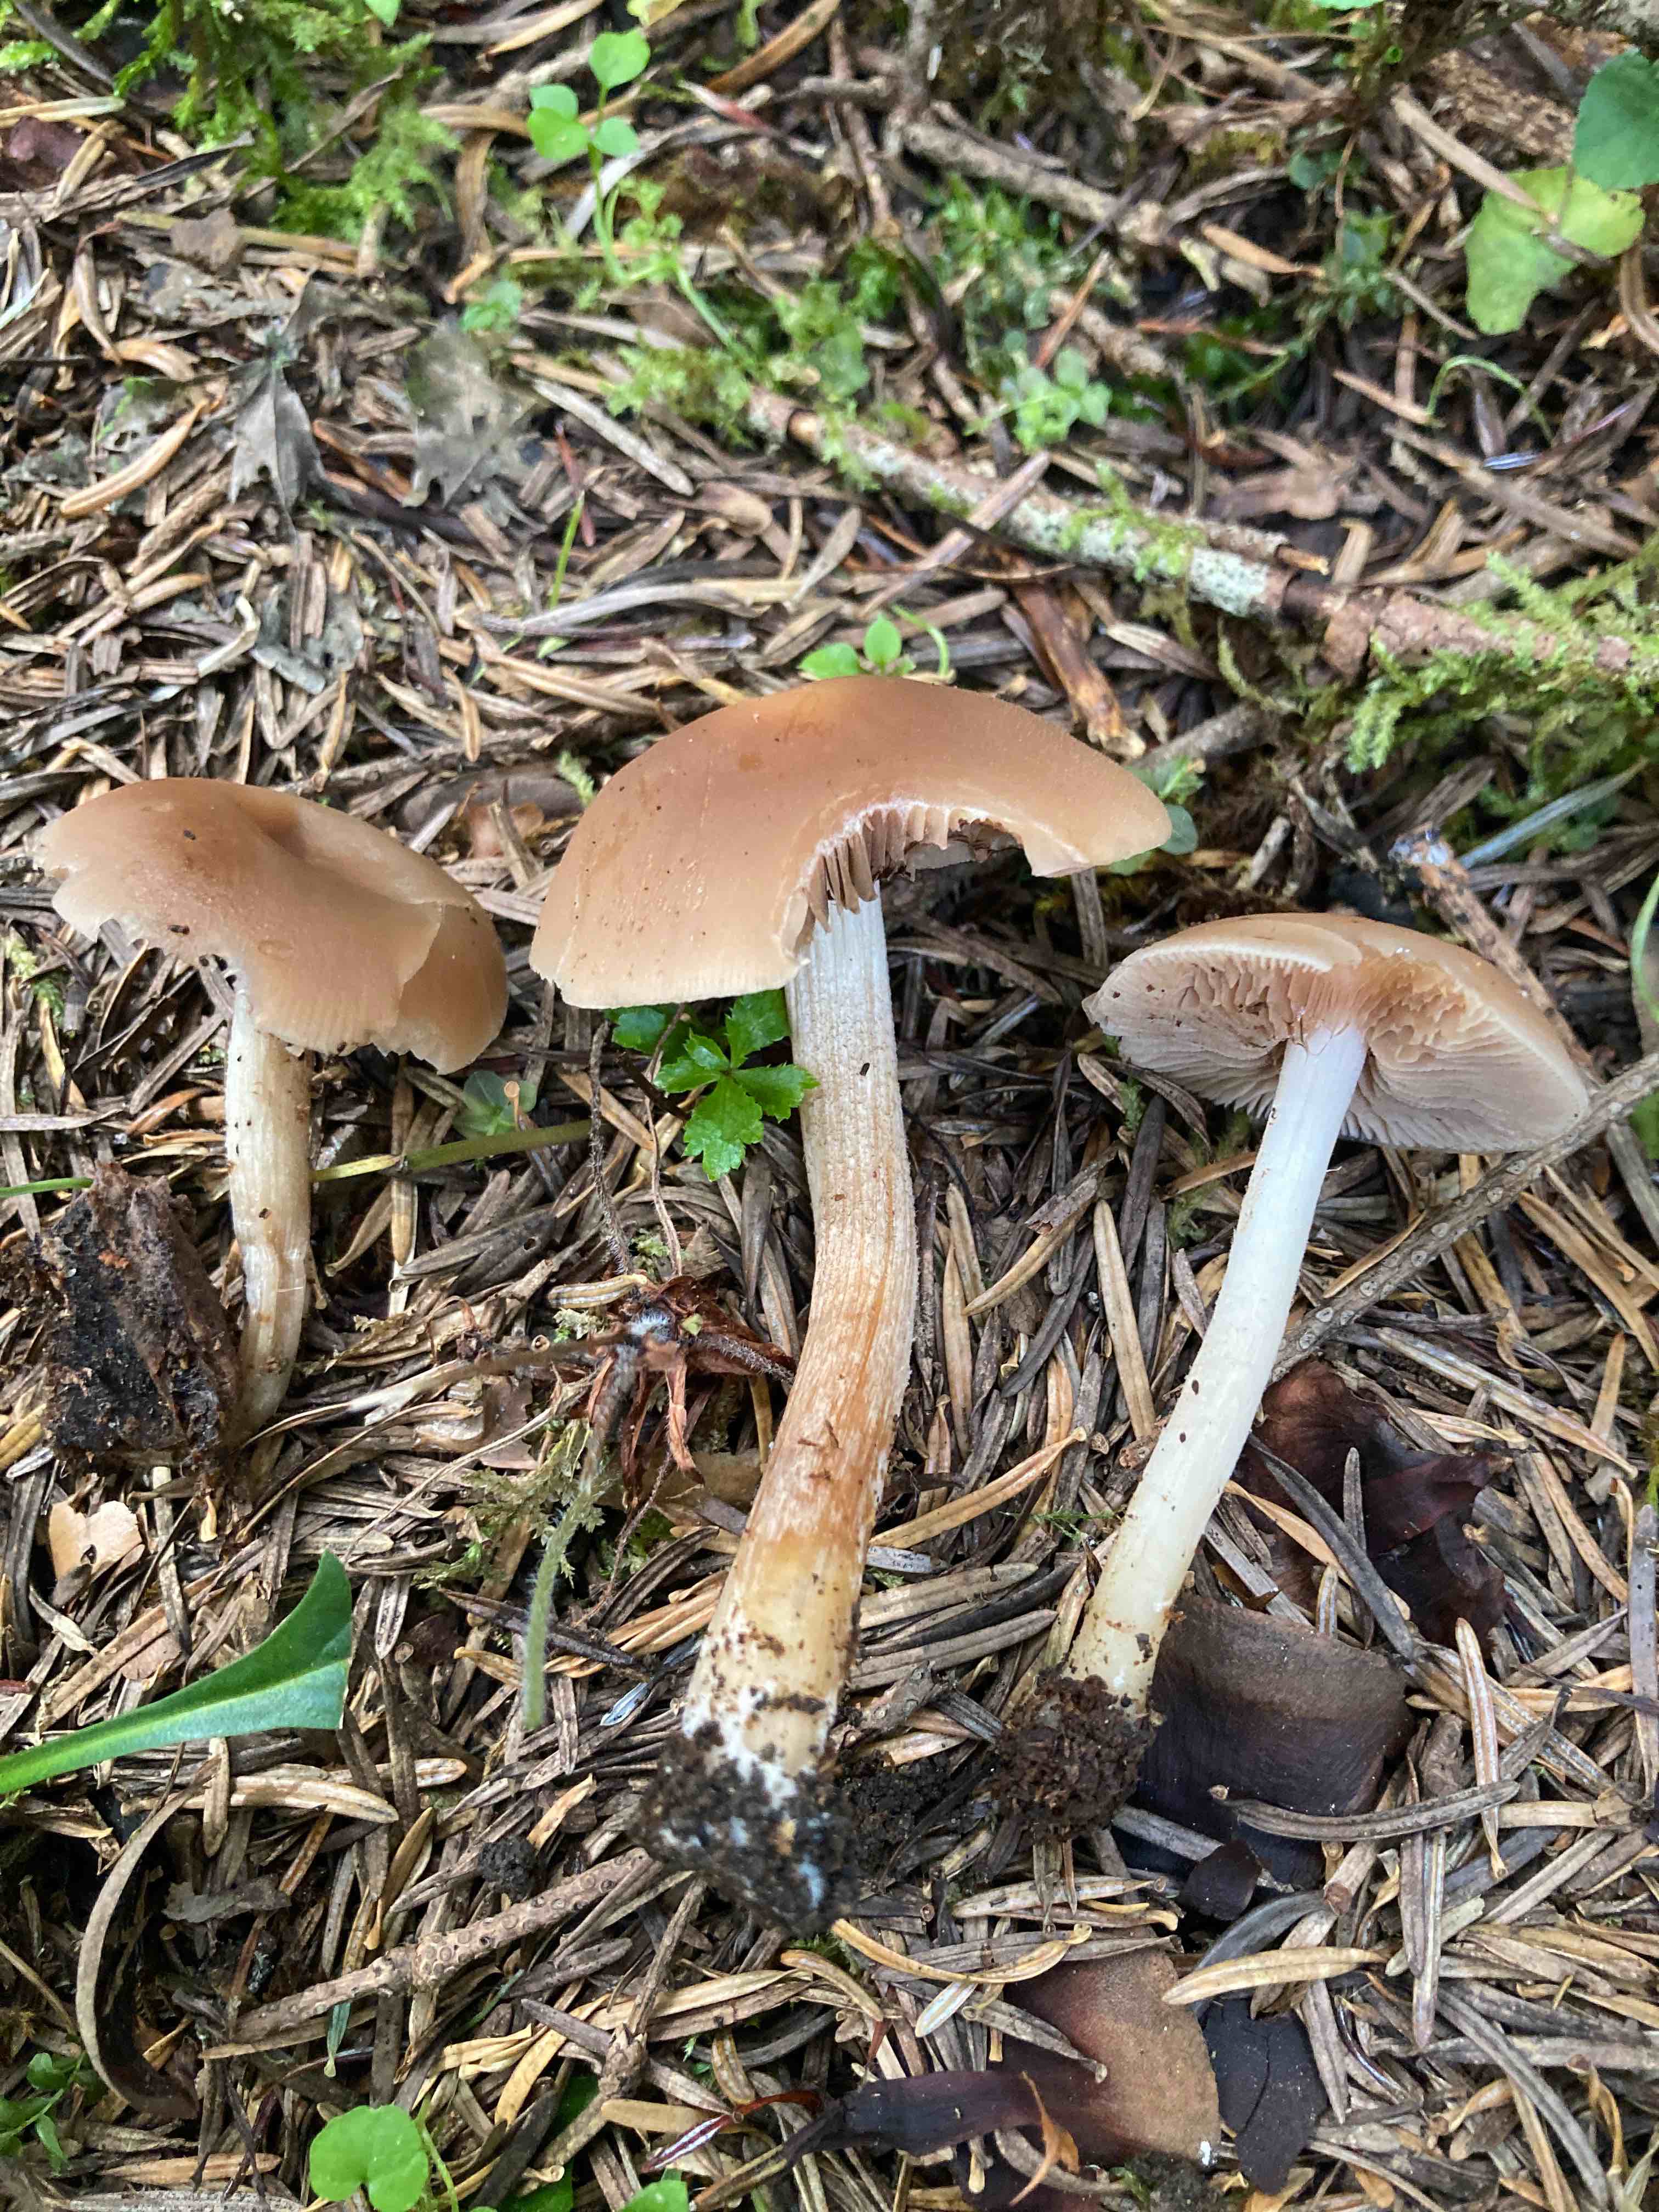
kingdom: Fungi
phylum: Basidiomycota
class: Agaricomycetes
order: Agaricales
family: Psathyrellaceae
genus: Homophron
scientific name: Homophron spadiceum
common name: daddelbrun mørkhat
